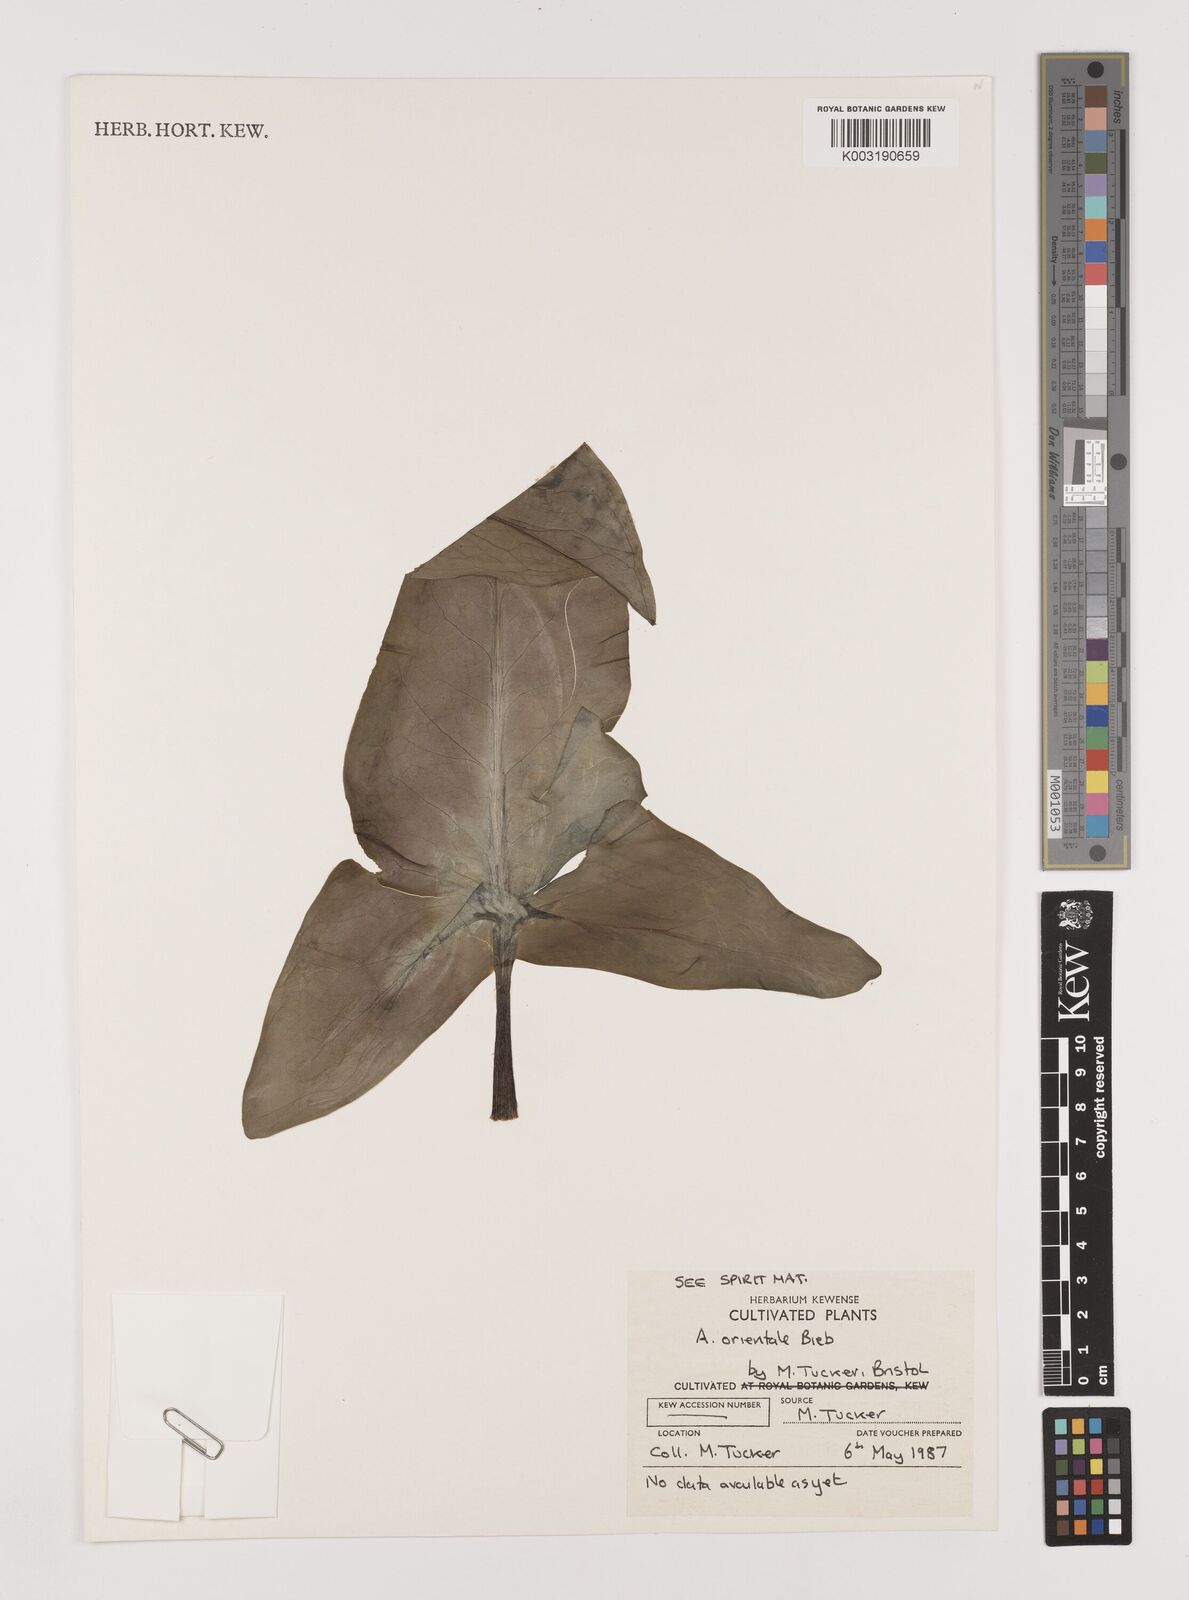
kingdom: Plantae
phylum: Tracheophyta
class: Liliopsida
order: Alismatales
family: Araceae
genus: Arum
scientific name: Arum orientale
